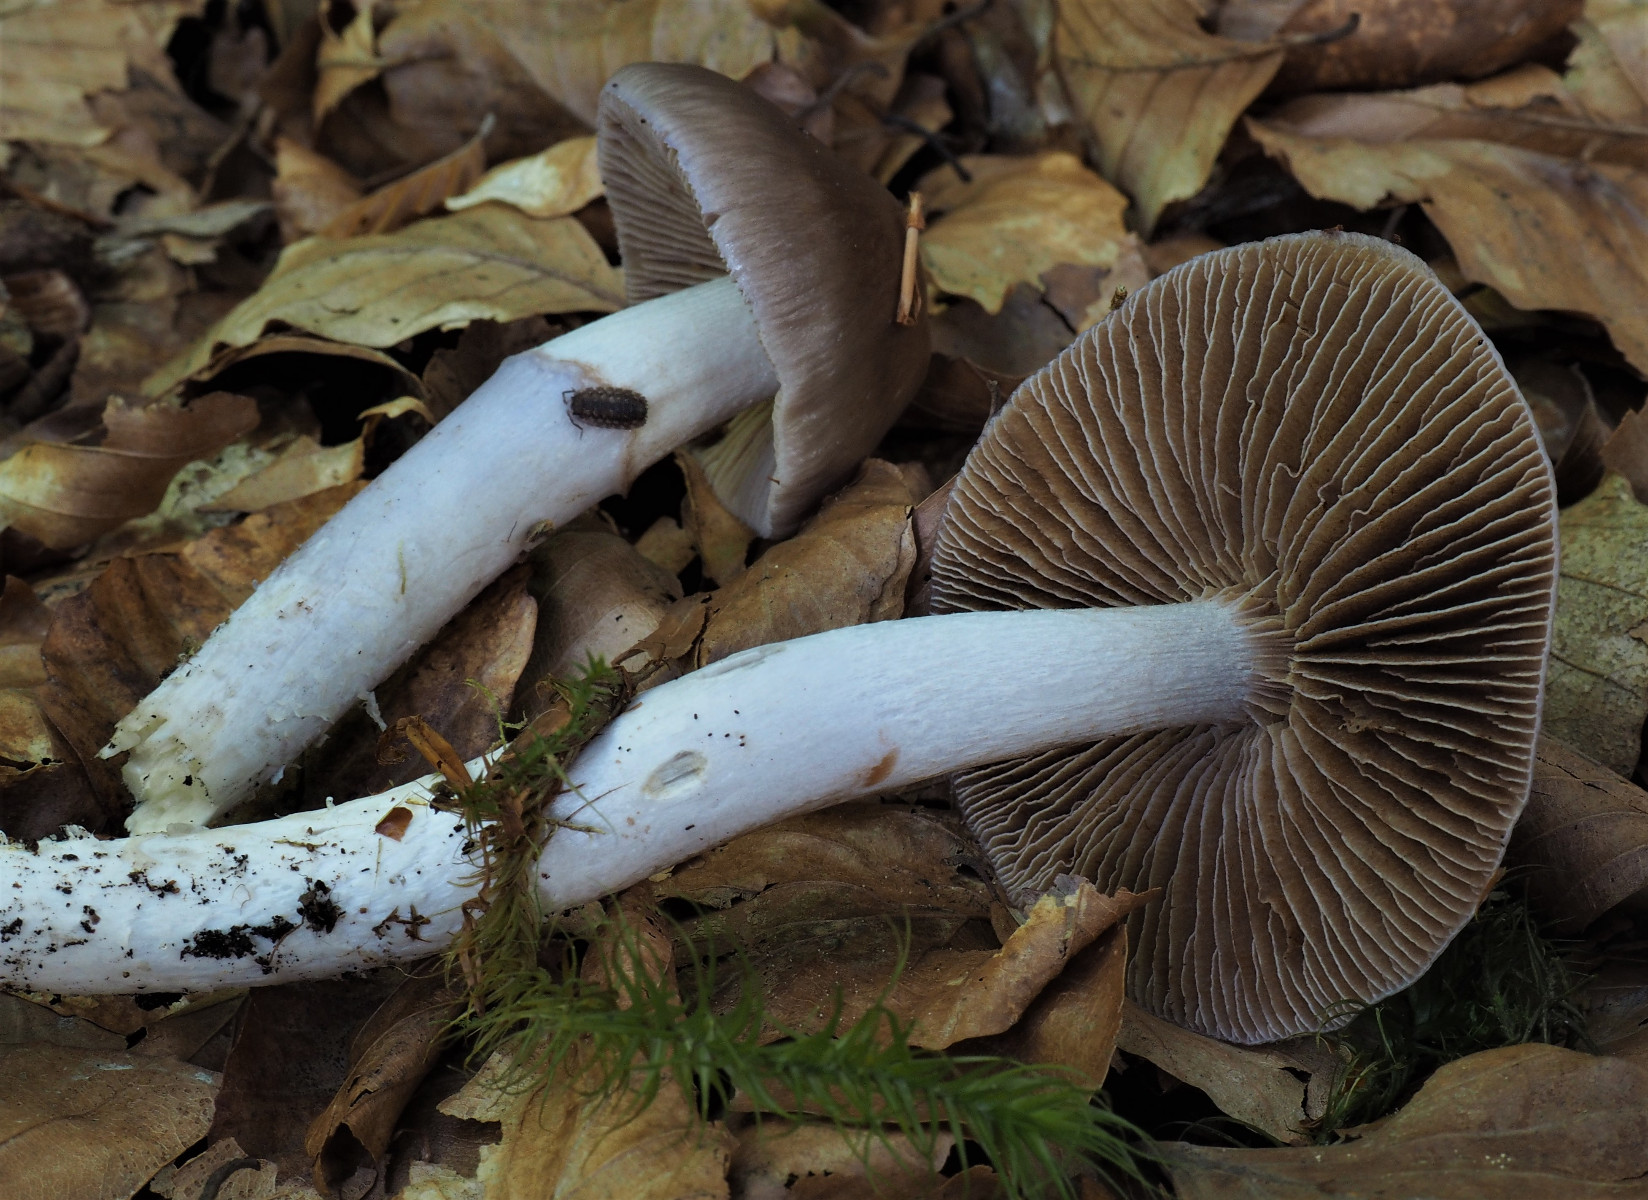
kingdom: Fungi
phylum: Basidiomycota
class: Agaricomycetes
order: Agaricales
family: Cortinariaceae
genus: Cortinarius
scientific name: Cortinarius elatior
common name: høj slørhat
